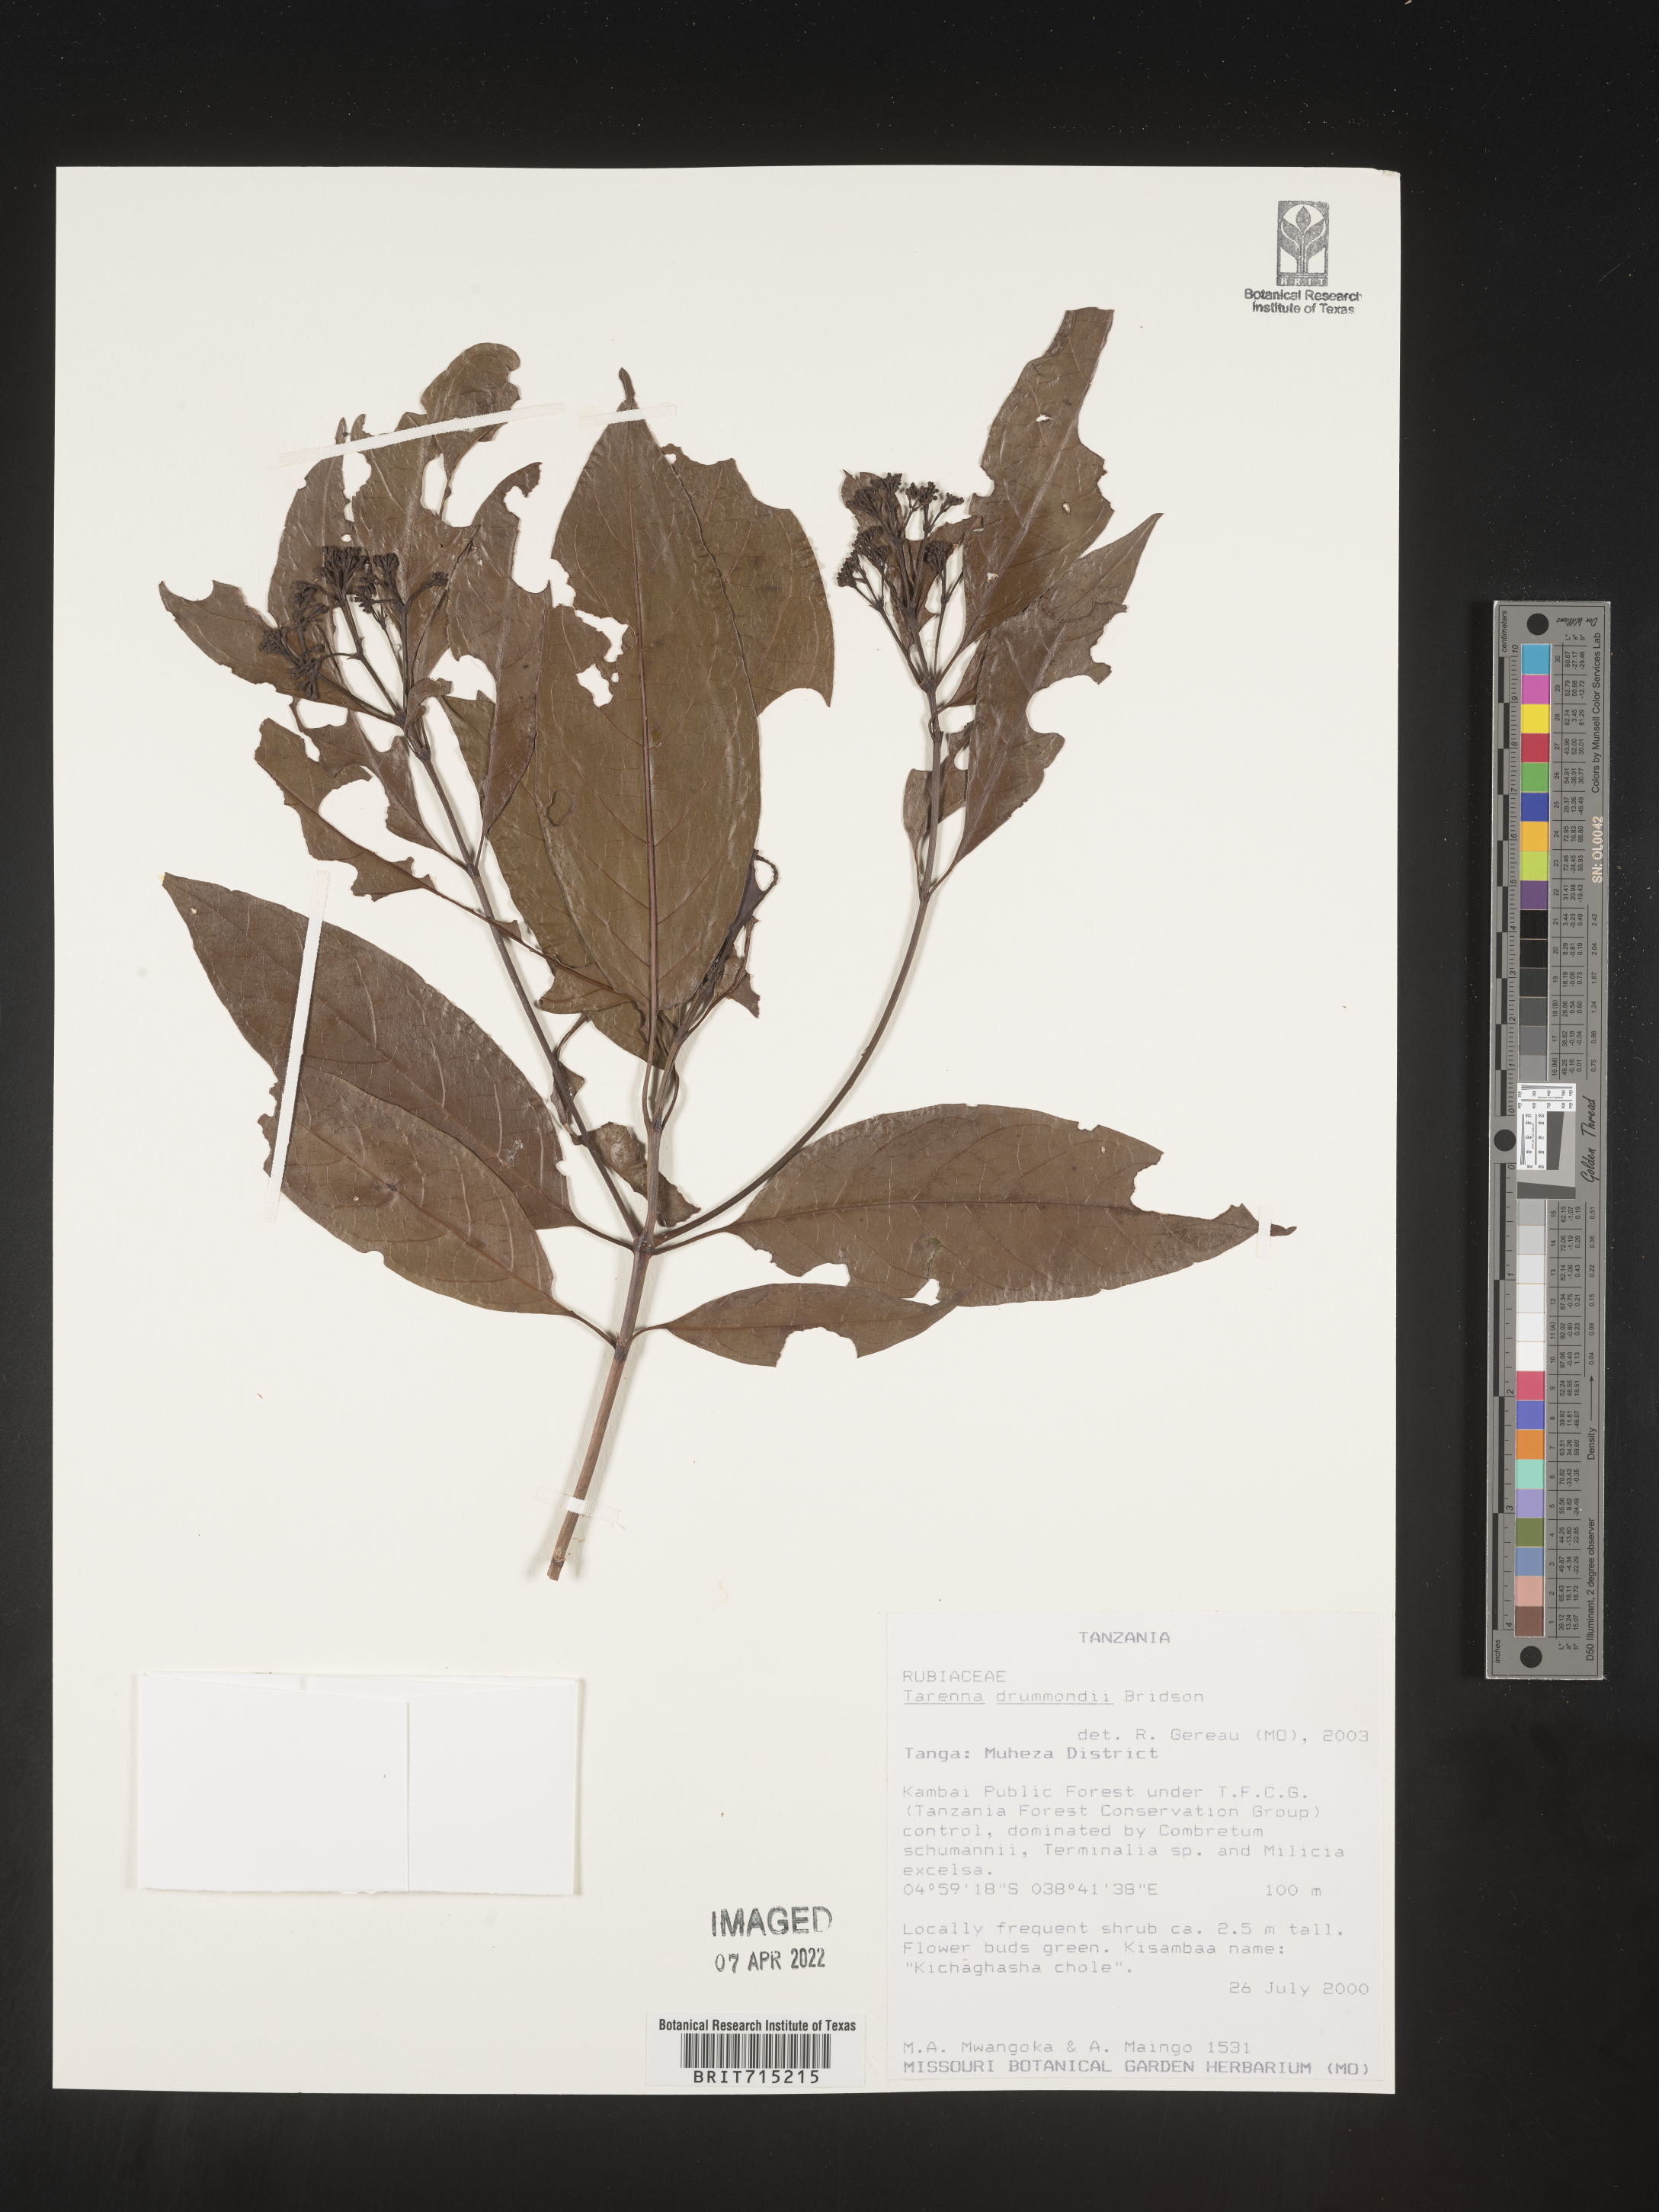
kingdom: Plantae
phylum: Tracheophyta
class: Magnoliopsida
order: Gentianales
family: Rubiaceae
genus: Tarenna
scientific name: Tarenna
